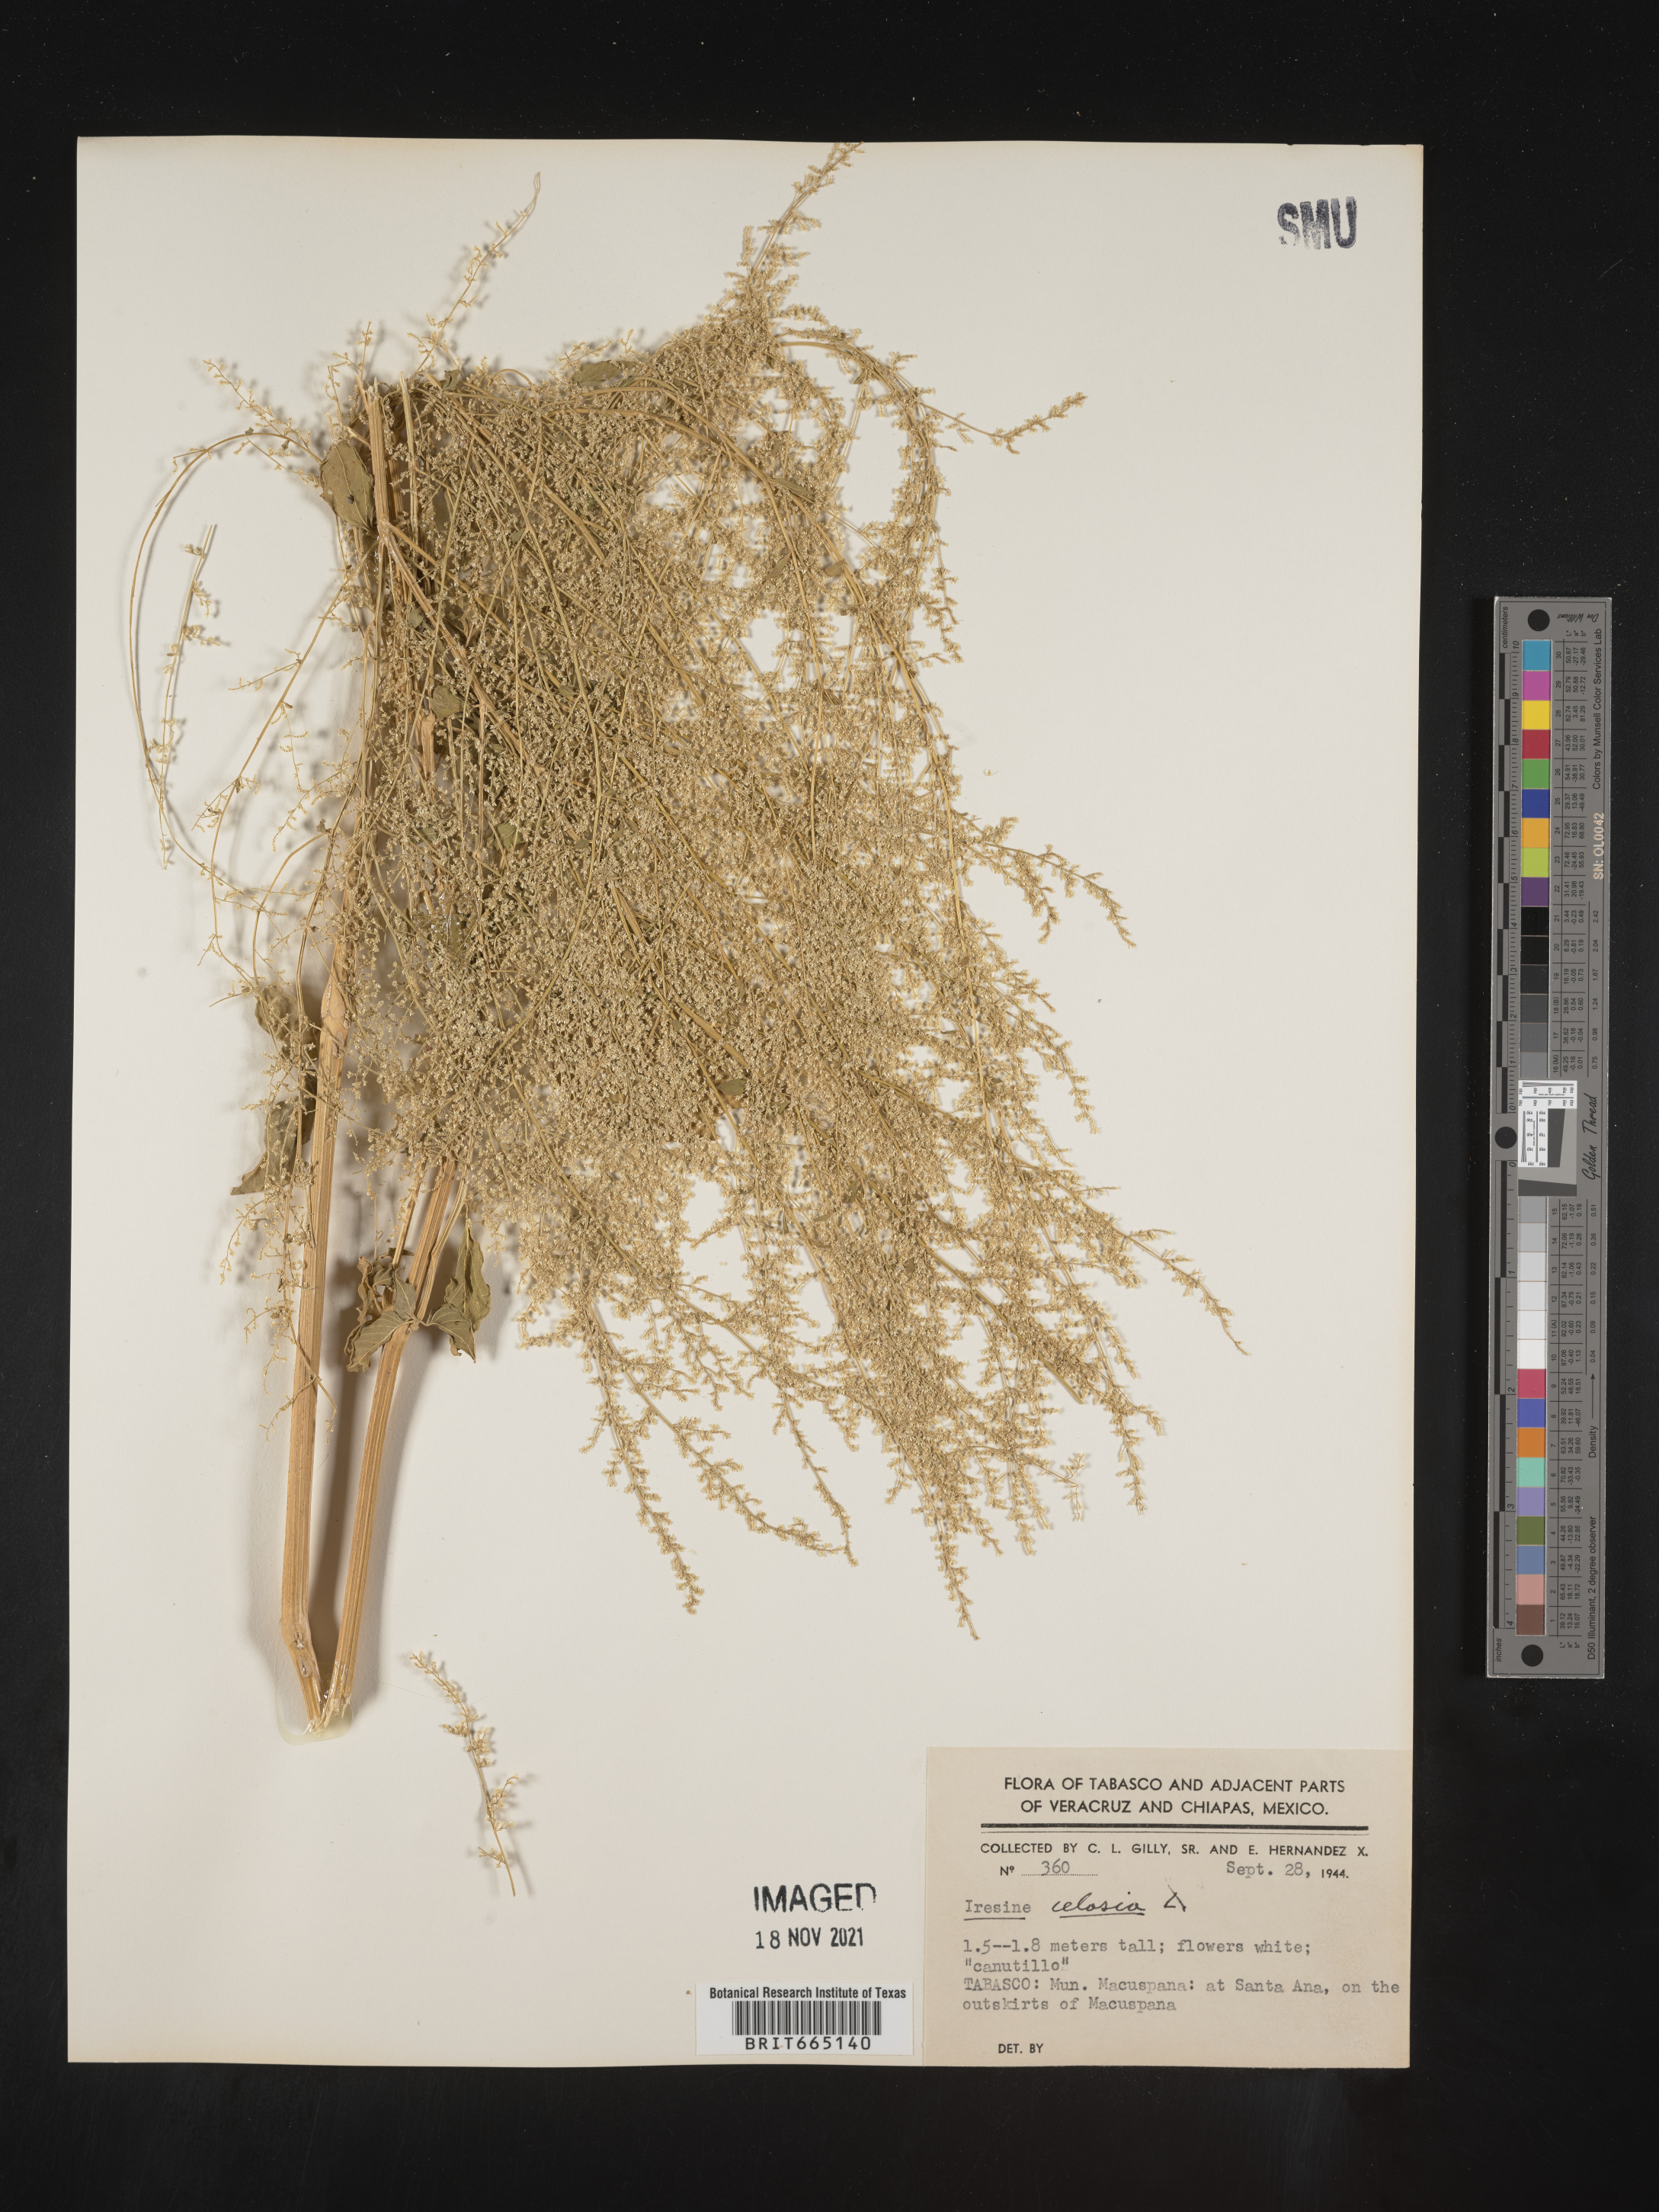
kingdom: Plantae
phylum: Tracheophyta
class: Magnoliopsida
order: Caryophyllales
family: Amaranthaceae
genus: Iresine
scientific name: Iresine
